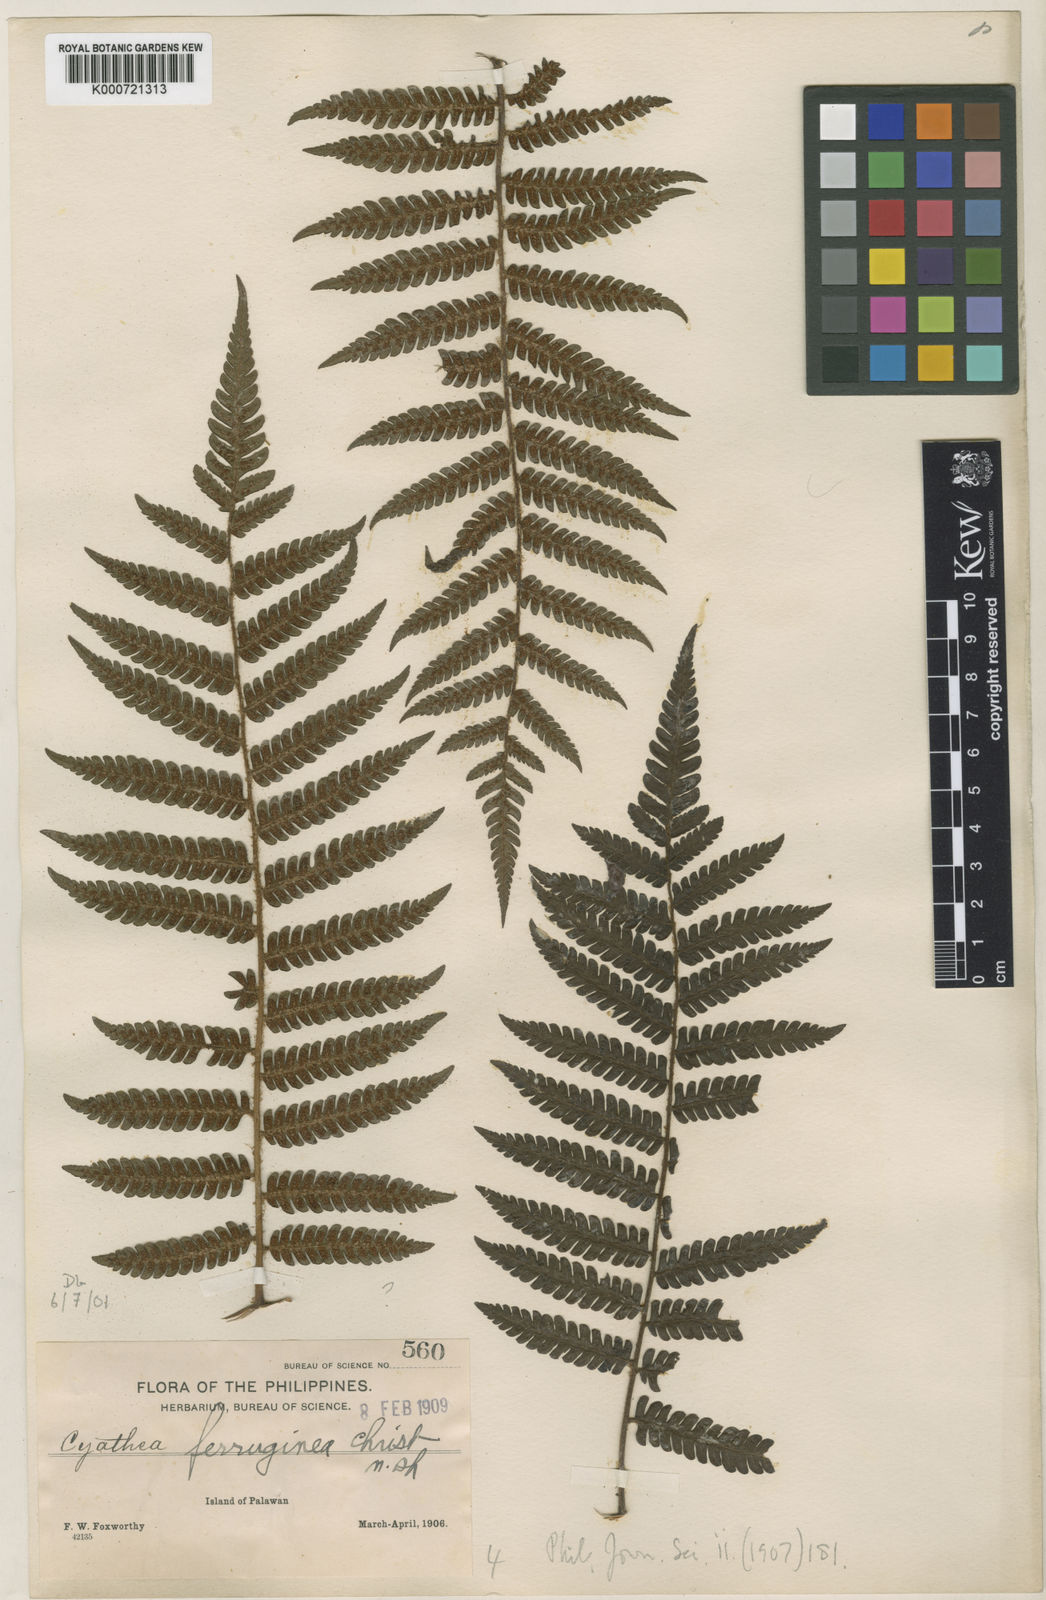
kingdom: Plantae
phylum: Tracheophyta
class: Polypodiopsida
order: Cyatheales
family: Cyatheaceae
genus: Alsophila
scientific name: Alsophila ferruginea
